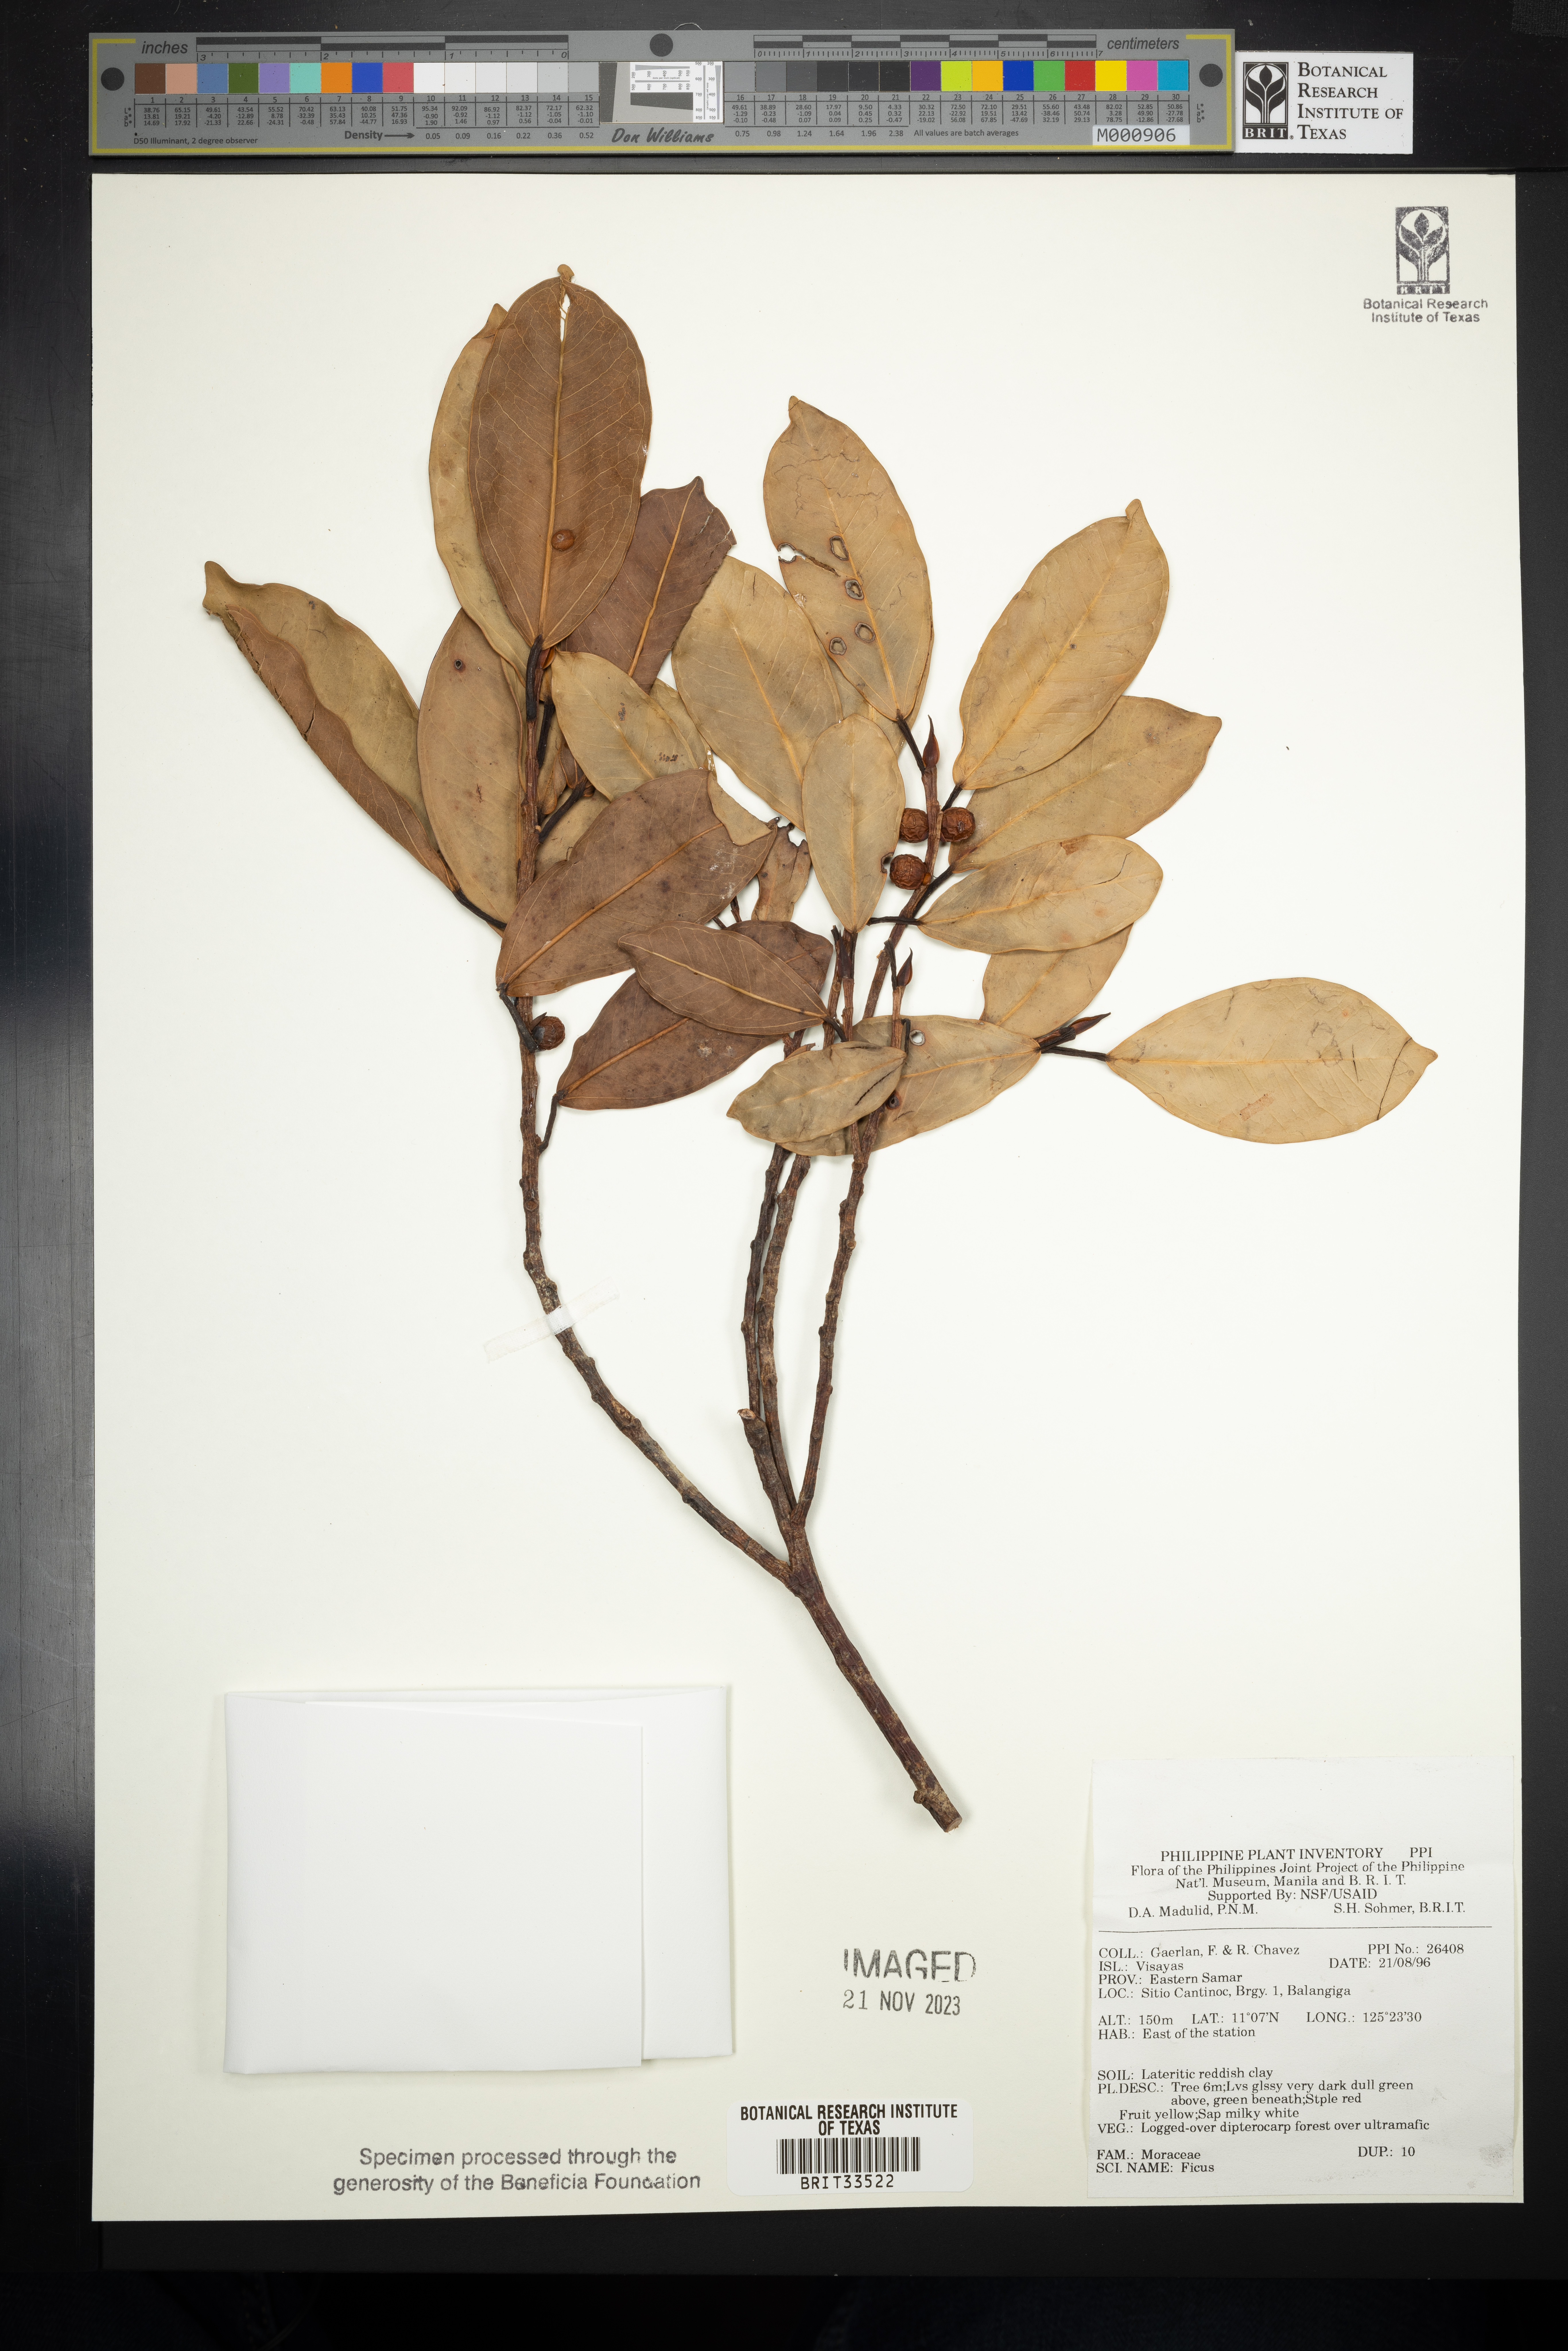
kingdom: Plantae
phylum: Tracheophyta
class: Magnoliopsida
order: Rosales
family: Moraceae
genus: Ficus
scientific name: Ficus
